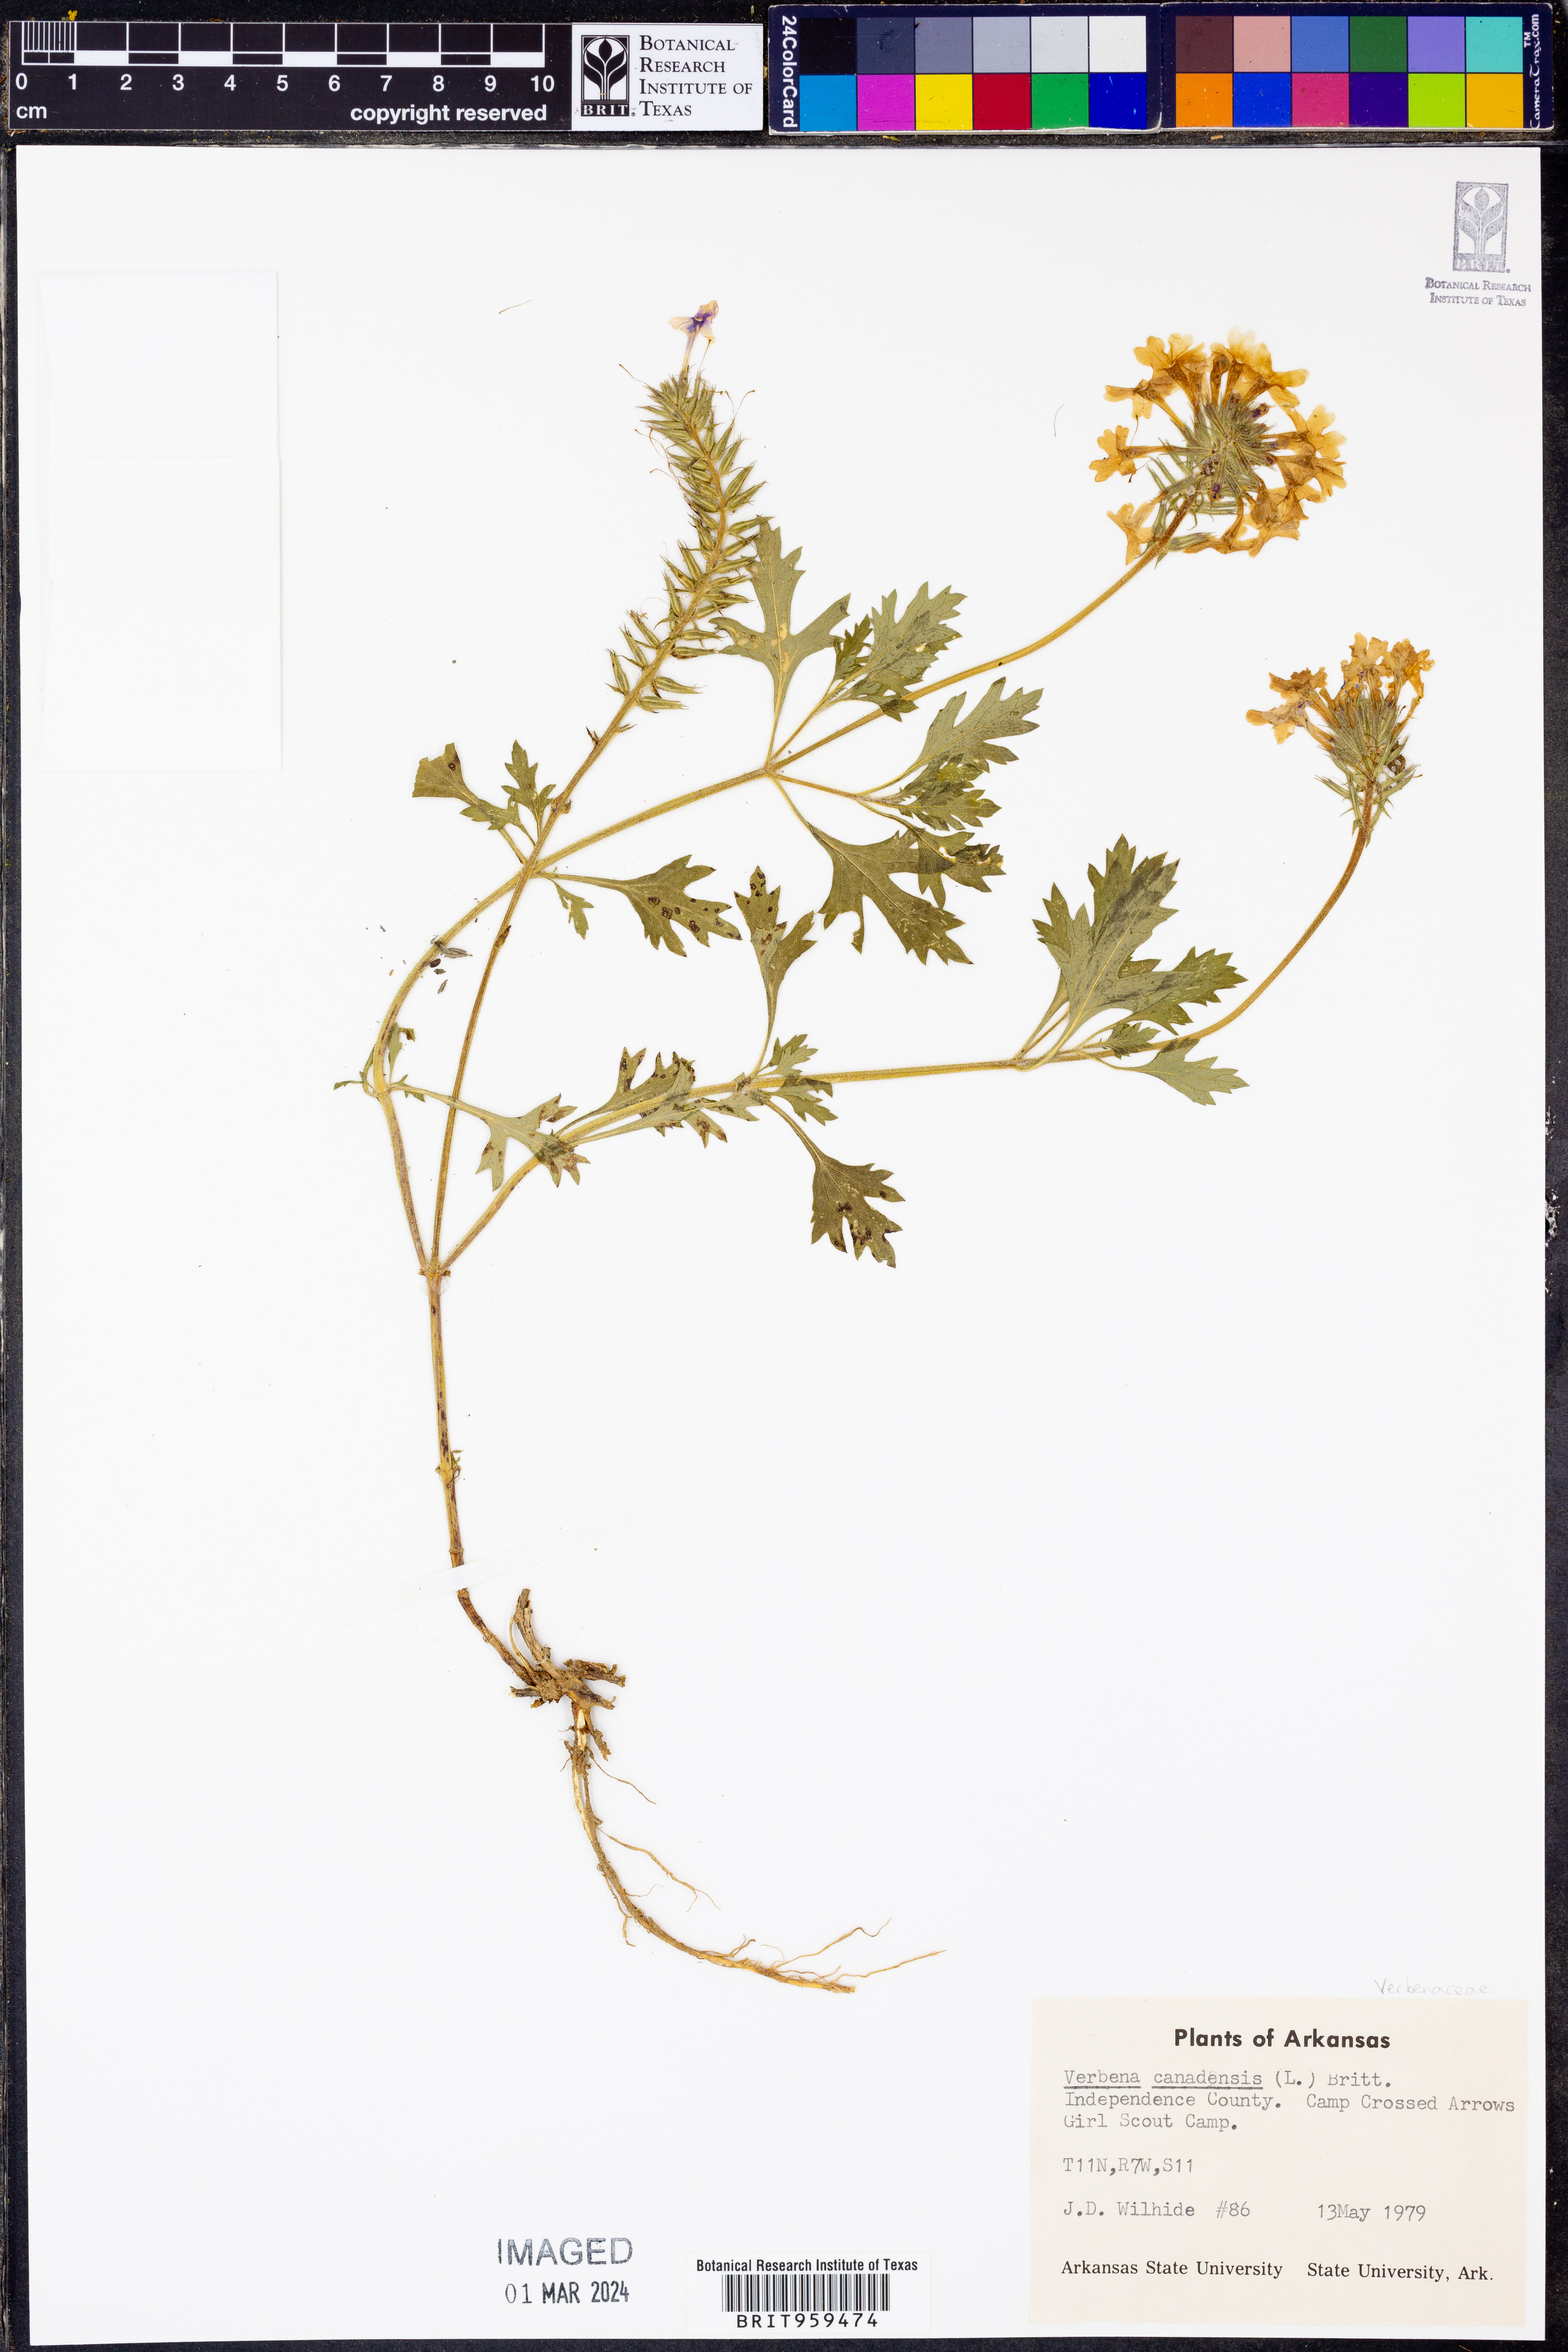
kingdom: Plantae
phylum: Tracheophyta
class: Magnoliopsida
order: Lamiales
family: Verbenaceae
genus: Verbena
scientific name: Verbena canadensis
